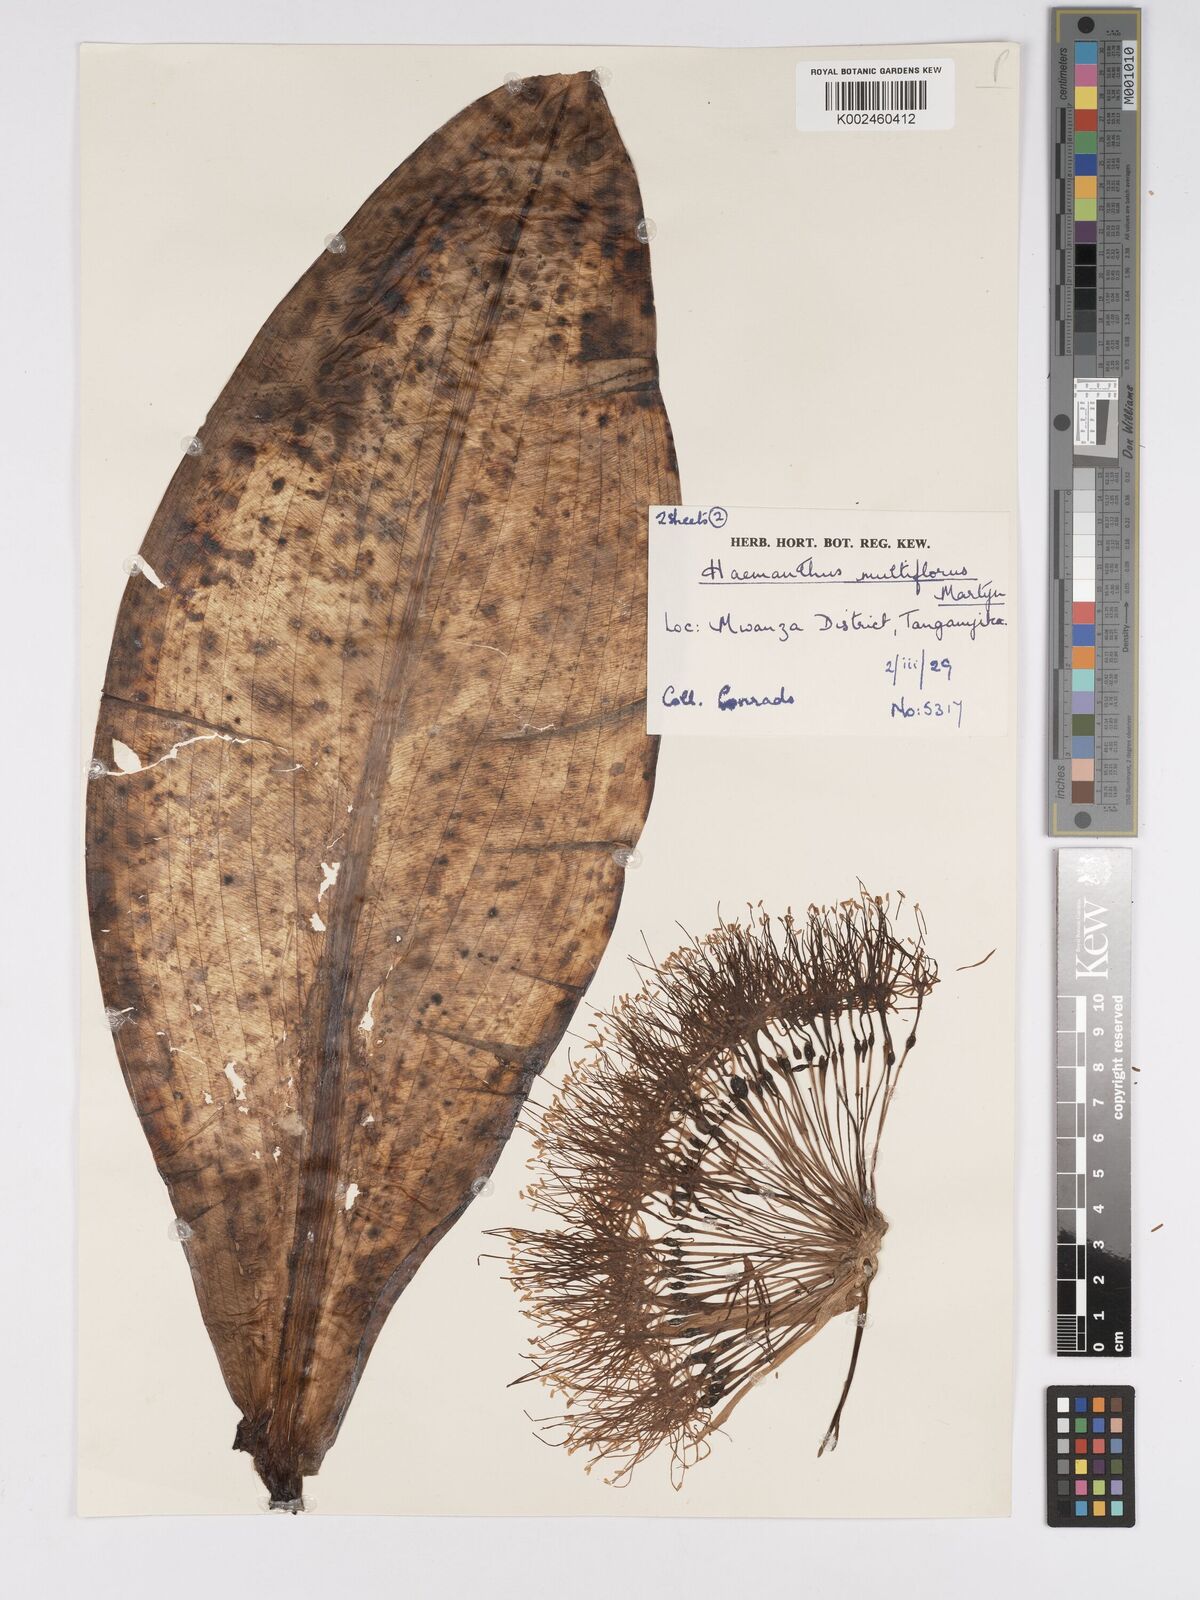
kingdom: Plantae
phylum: Tracheophyta
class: Liliopsida
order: Asparagales
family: Amaryllidaceae
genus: Scadoxus
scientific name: Scadoxus multiflorus
